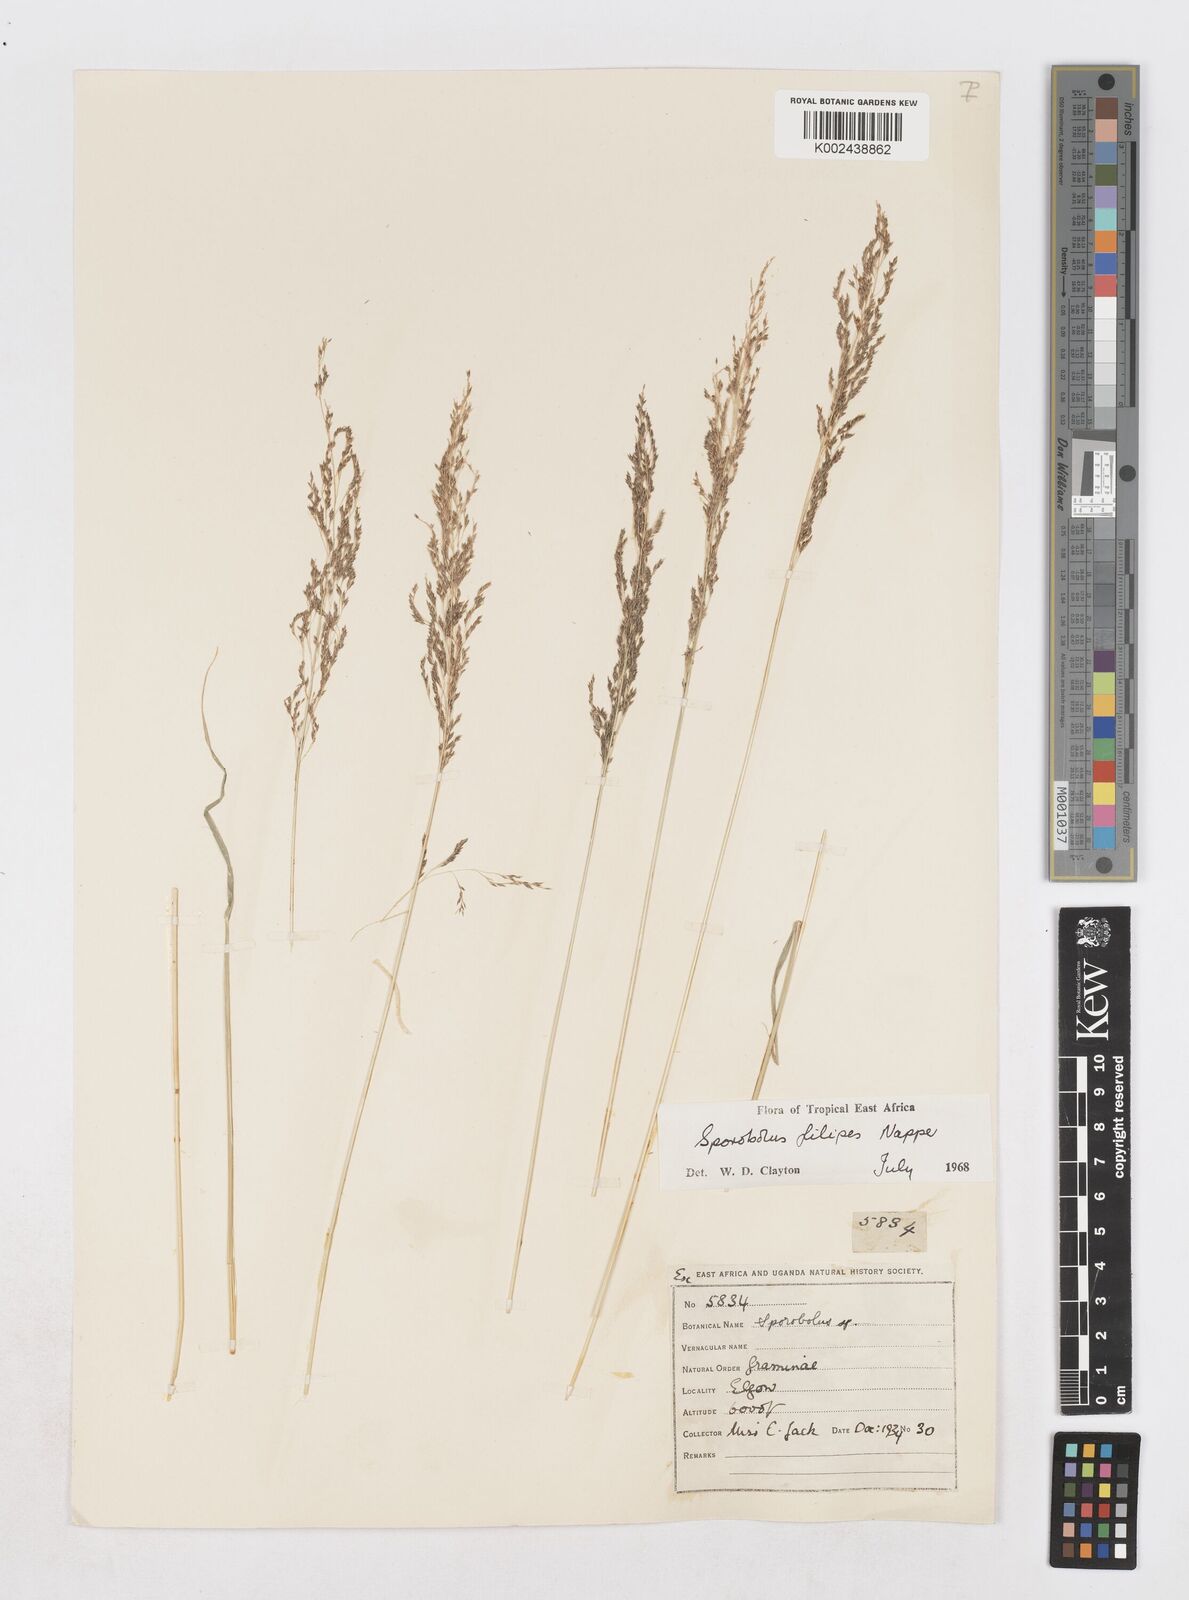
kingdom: Plantae
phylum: Tracheophyta
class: Liliopsida
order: Poales
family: Poaceae
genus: Sporobolus
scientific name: Sporobolus agrostoides
